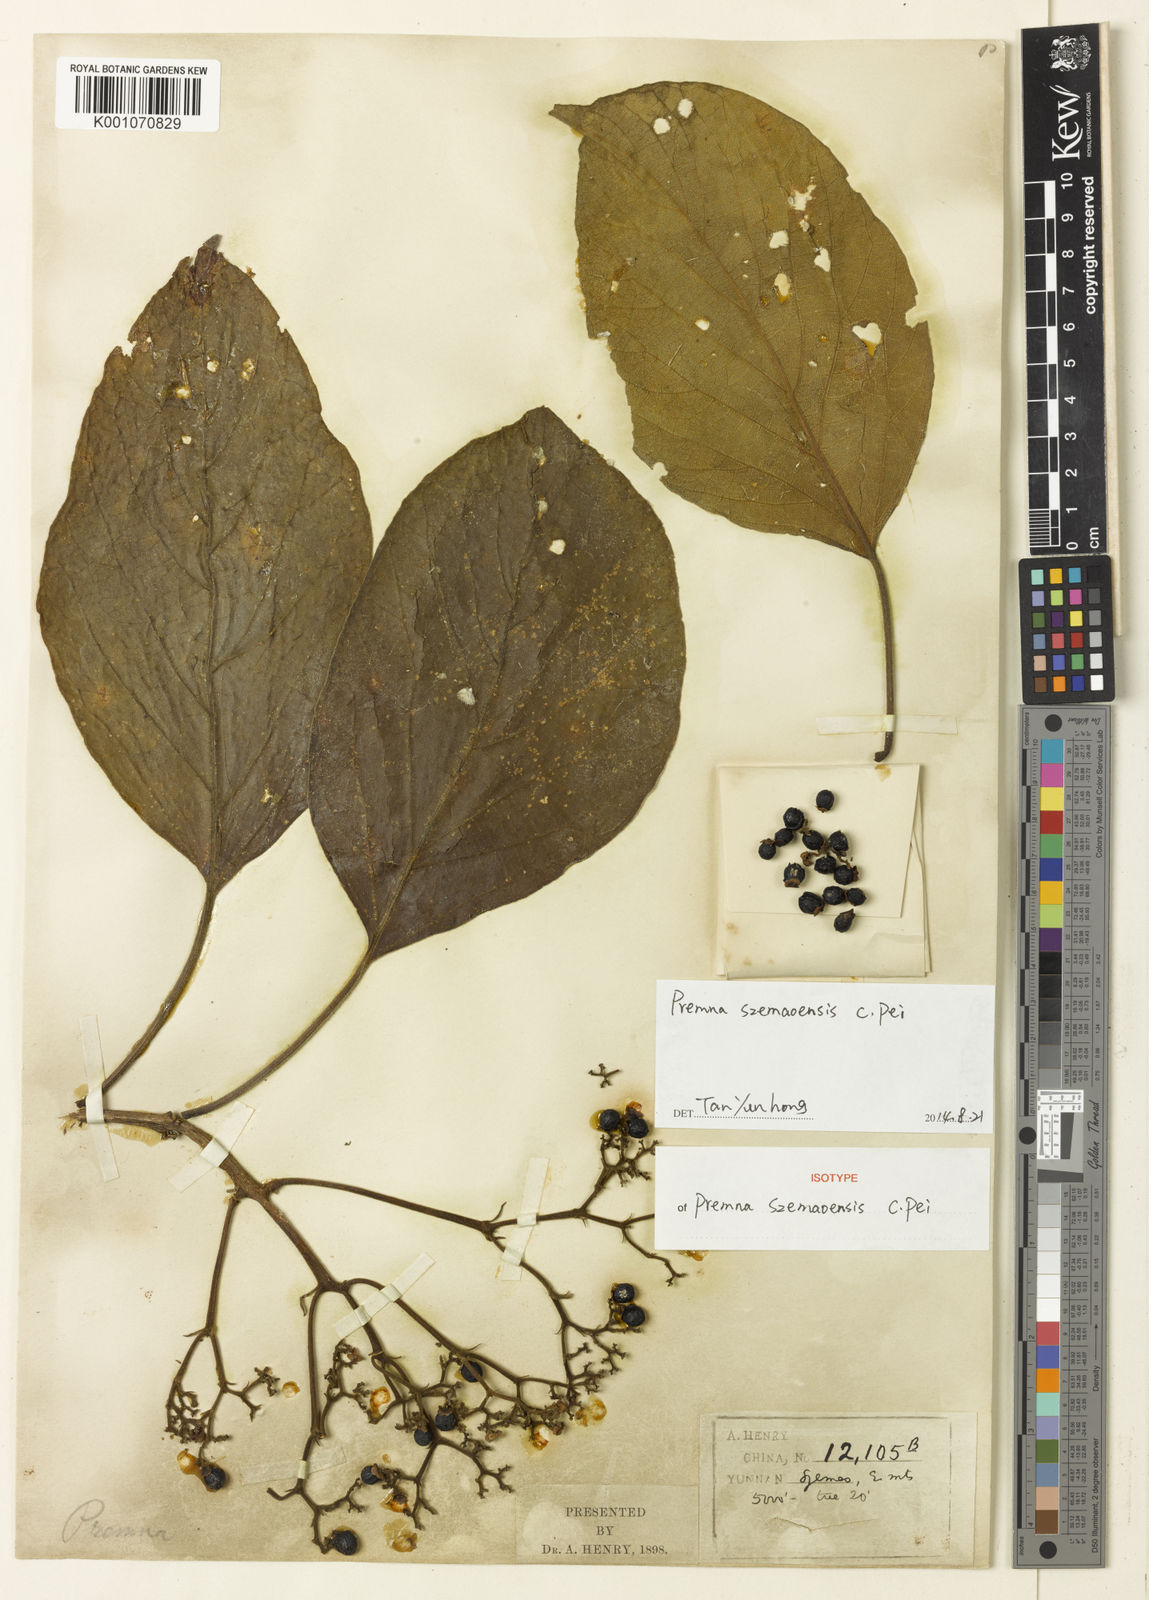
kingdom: Plantae
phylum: Tracheophyta
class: Magnoliopsida
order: Lamiales
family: Lamiaceae
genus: Premna
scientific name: Premna szemaoensis
